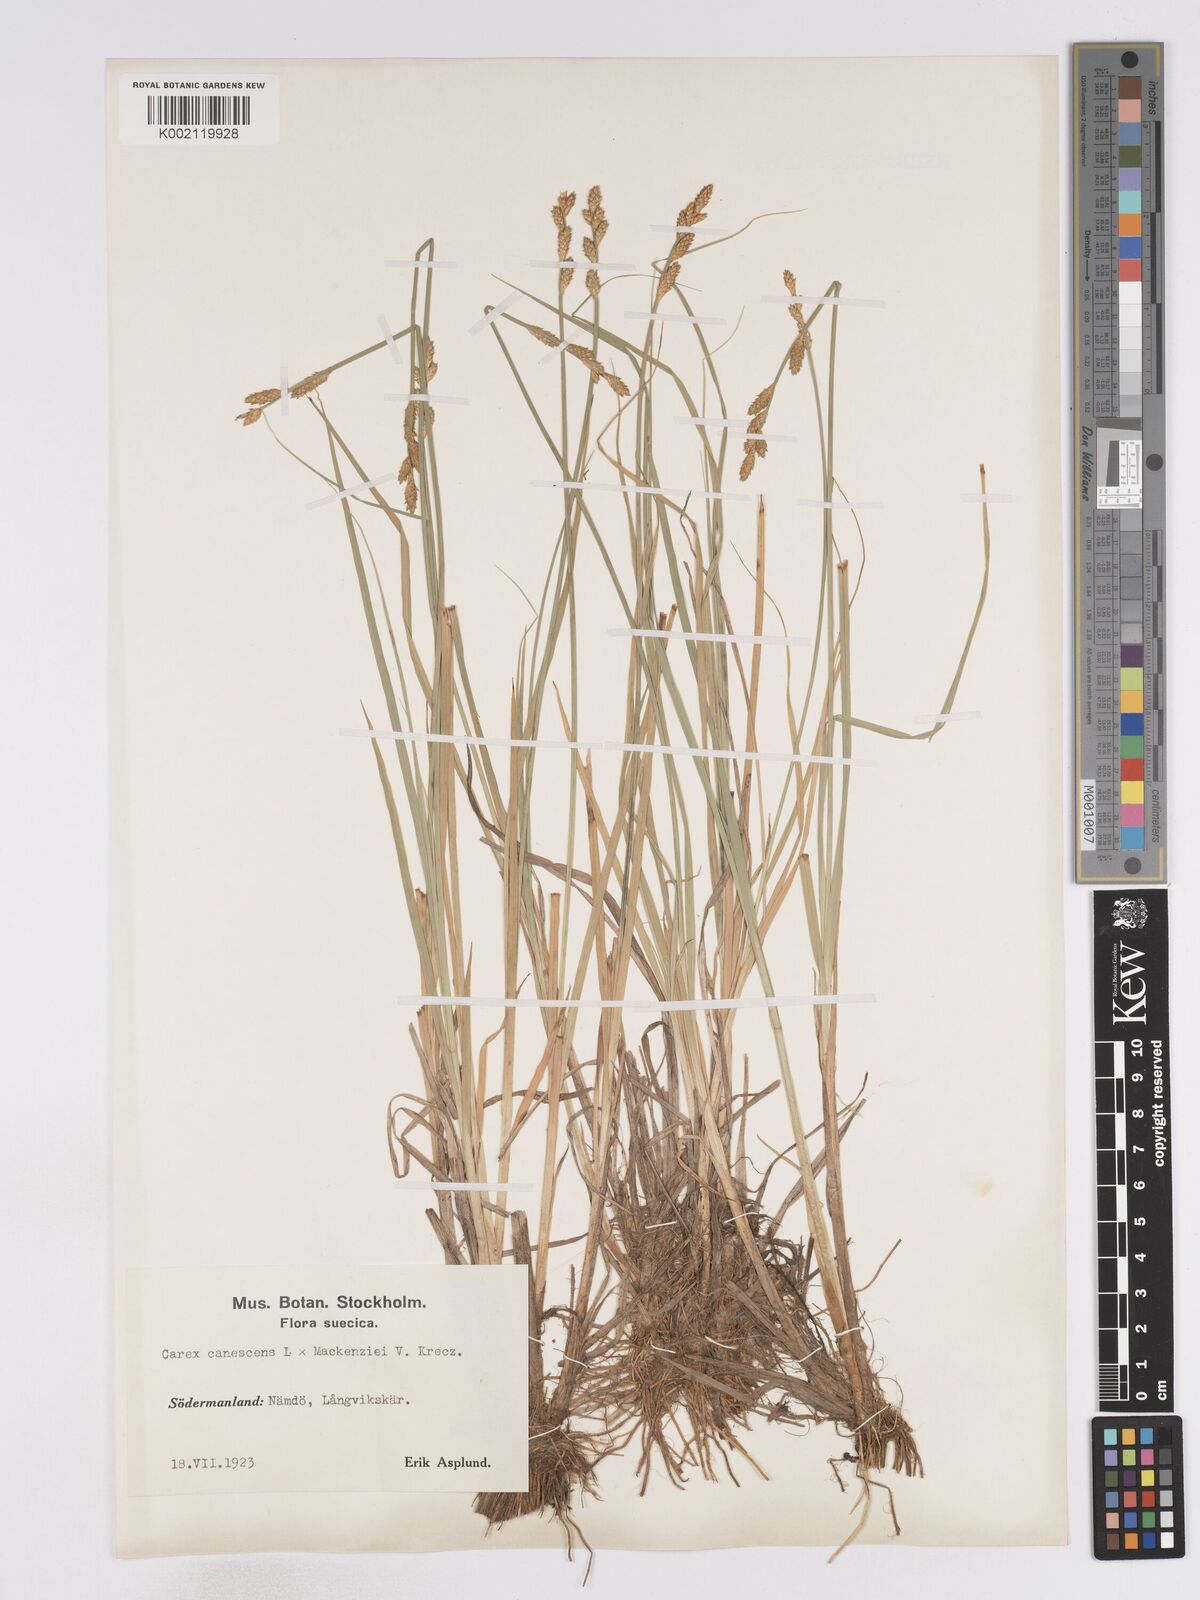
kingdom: Plantae
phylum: Tracheophyta
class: Liliopsida
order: Poales
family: Cyperaceae
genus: Carex
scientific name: Carex curta
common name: White sedge
